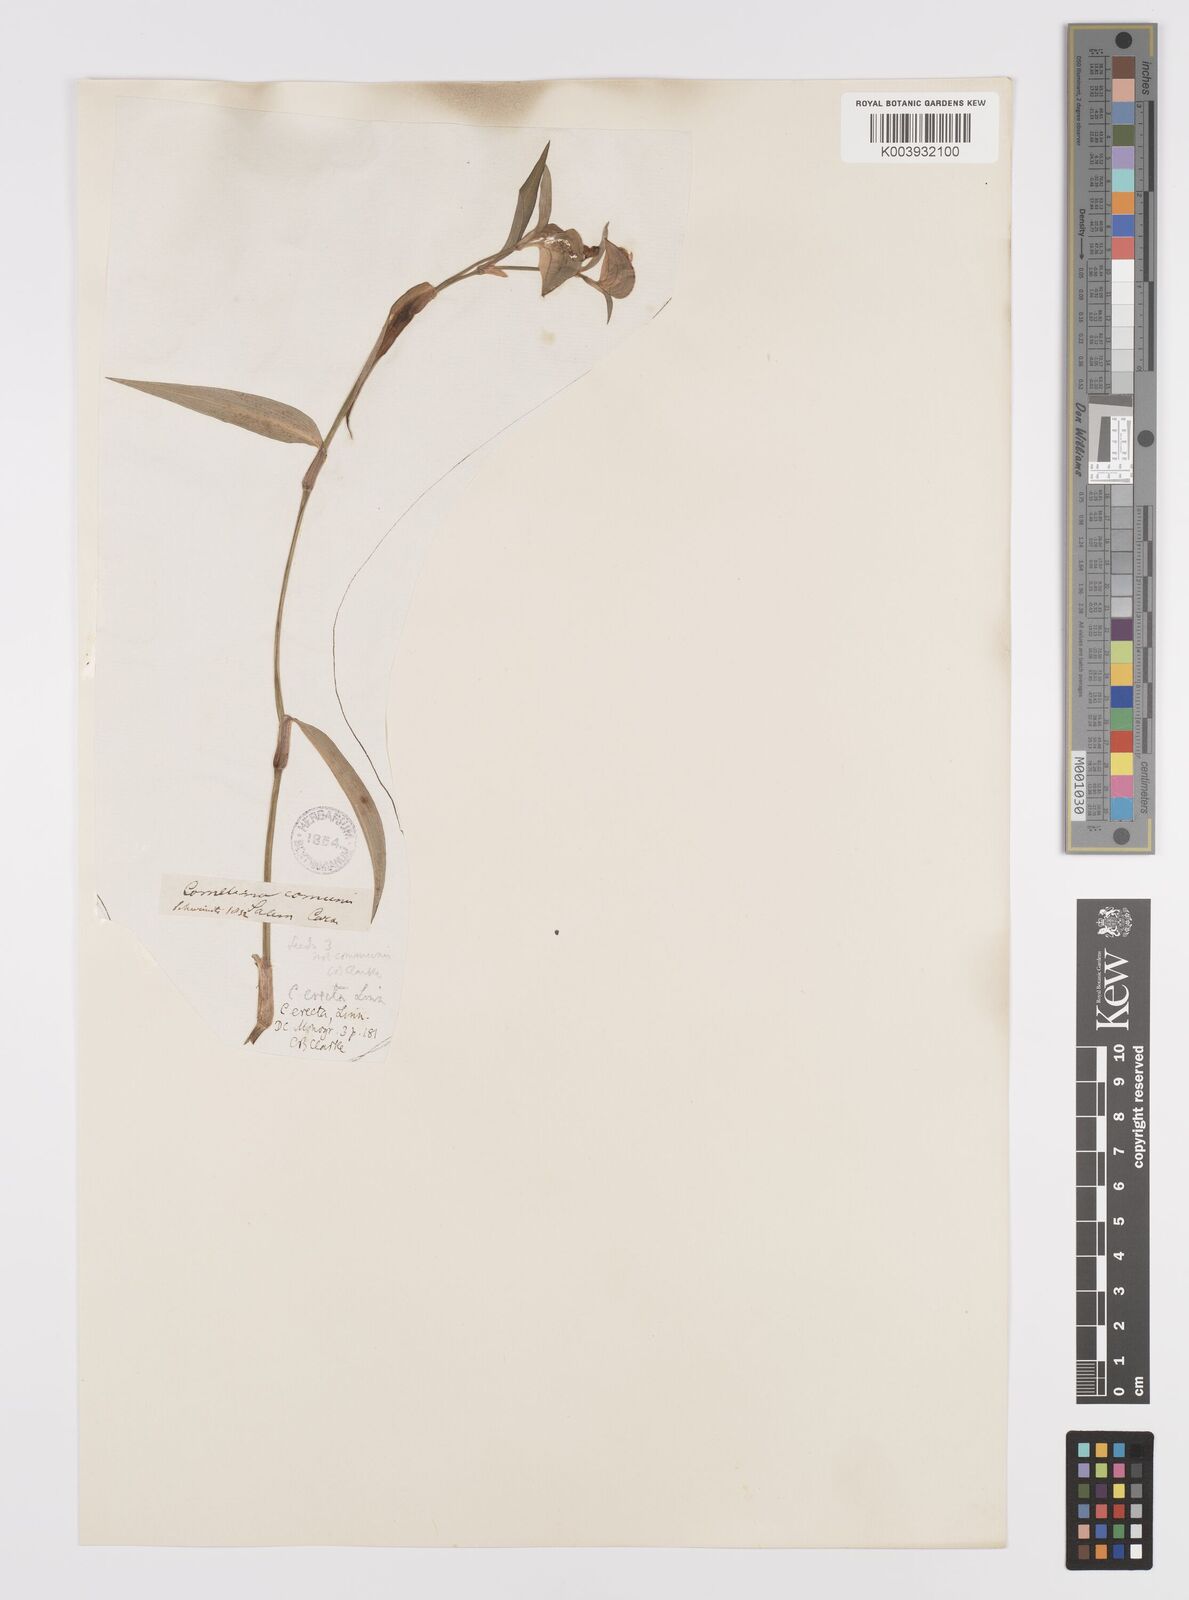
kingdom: Plantae
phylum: Tracheophyta
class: Liliopsida
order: Commelinales
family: Commelinaceae
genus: Commelina
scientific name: Commelina erecta
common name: Blousel blommetjie
